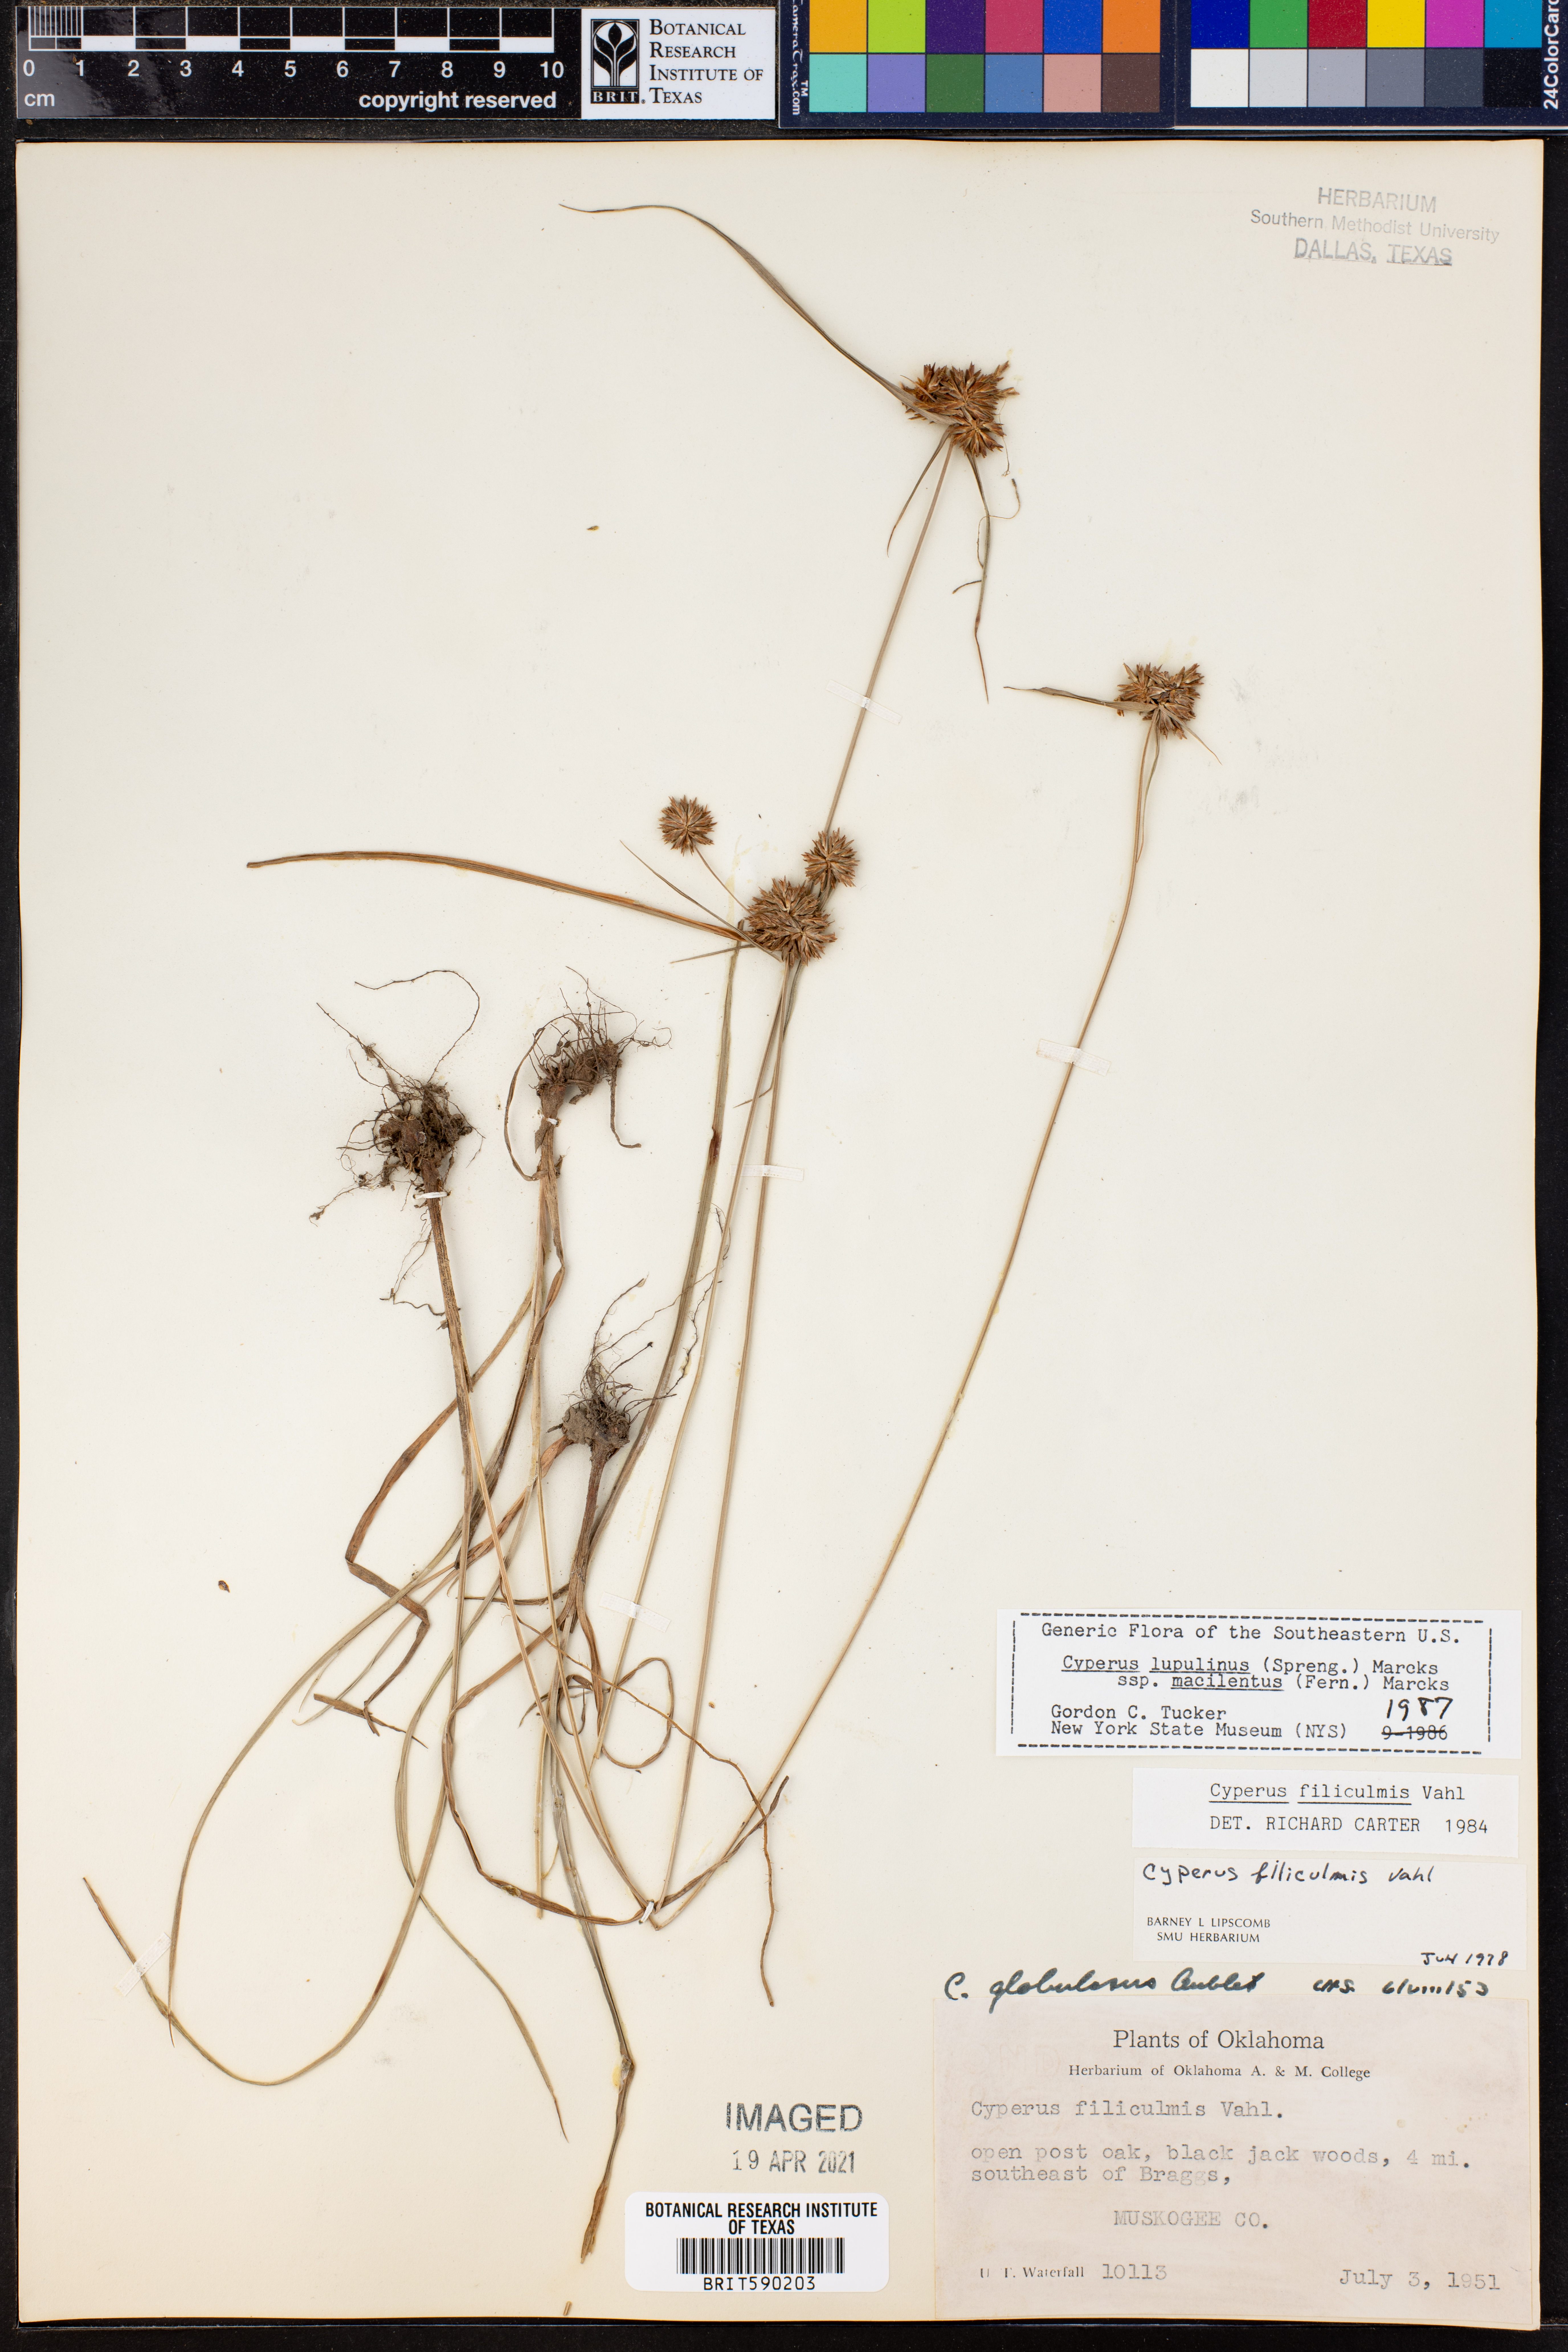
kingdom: Plantae
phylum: Tracheophyta
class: Liliopsida
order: Poales
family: Cyperaceae
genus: Cyperus
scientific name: Cyperus lupulinus
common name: Great plains flatsedge
